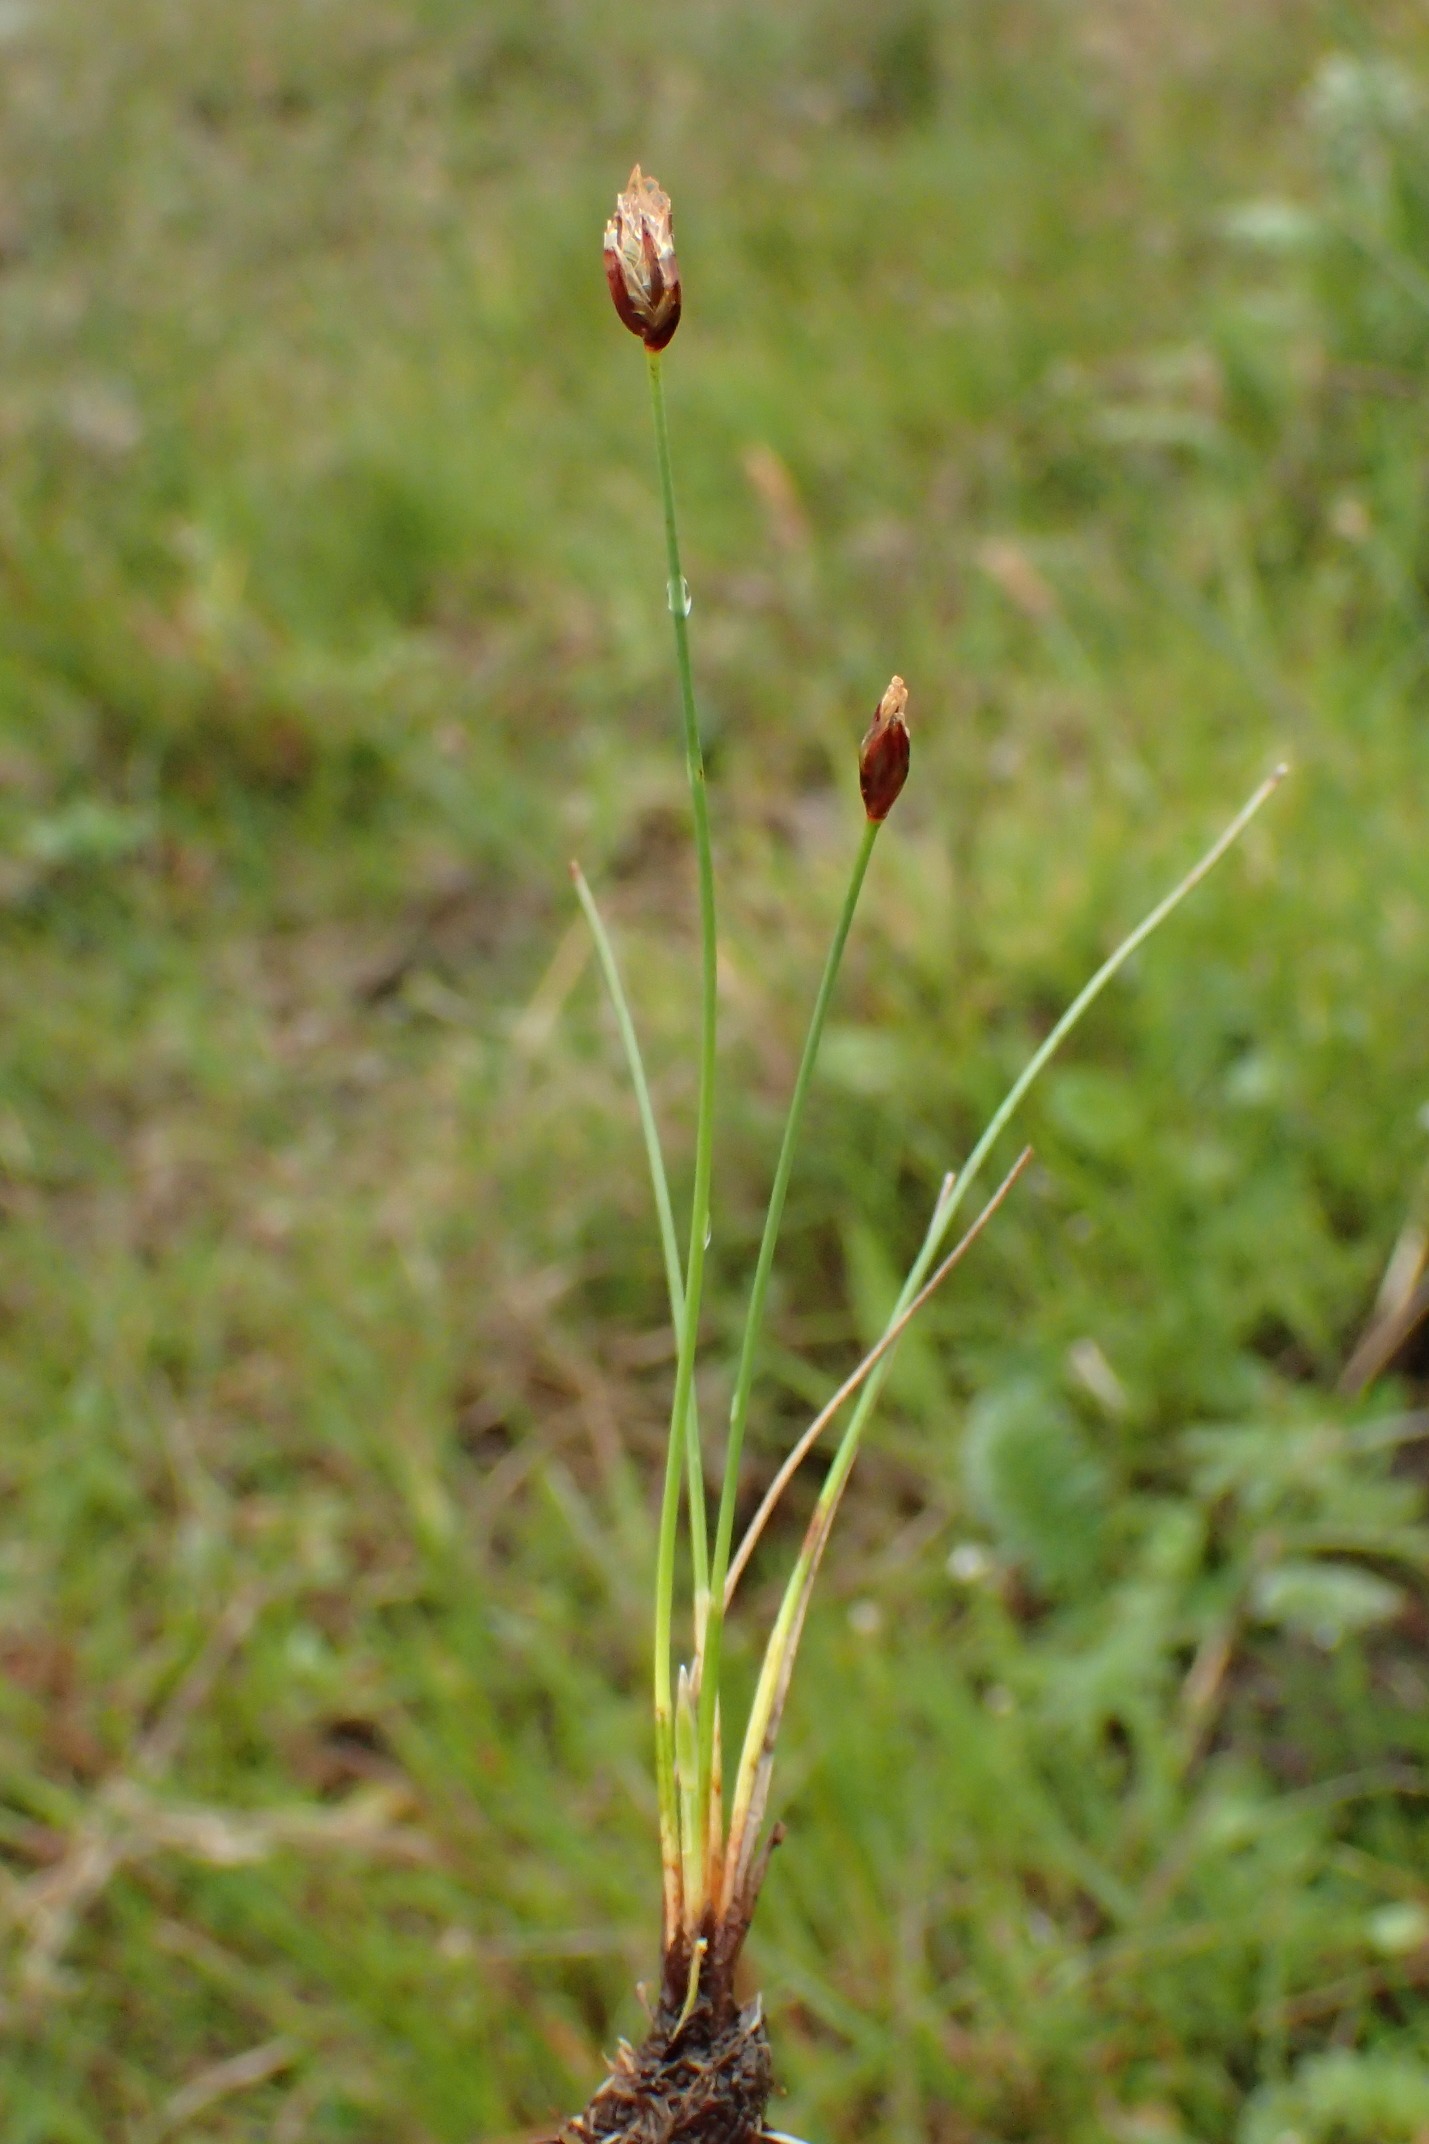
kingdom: Plantae
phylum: Tracheophyta
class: Liliopsida
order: Poales
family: Cyperaceae
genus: Eleocharis
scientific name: Eleocharis quinqueflora
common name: Fåblomstret kogleaks
